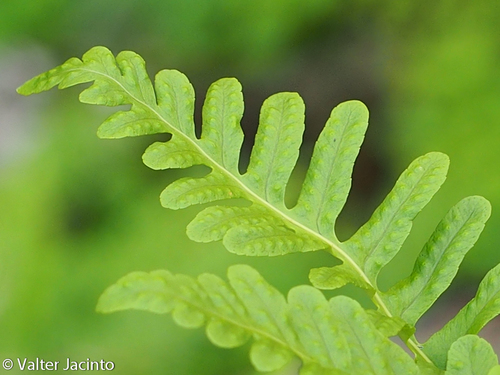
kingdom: Plantae
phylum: Tracheophyta
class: Polypodiopsida
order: Polypodiales
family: Polypodiaceae
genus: Polypodium
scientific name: Polypodium cambricum
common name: Southern polypody
